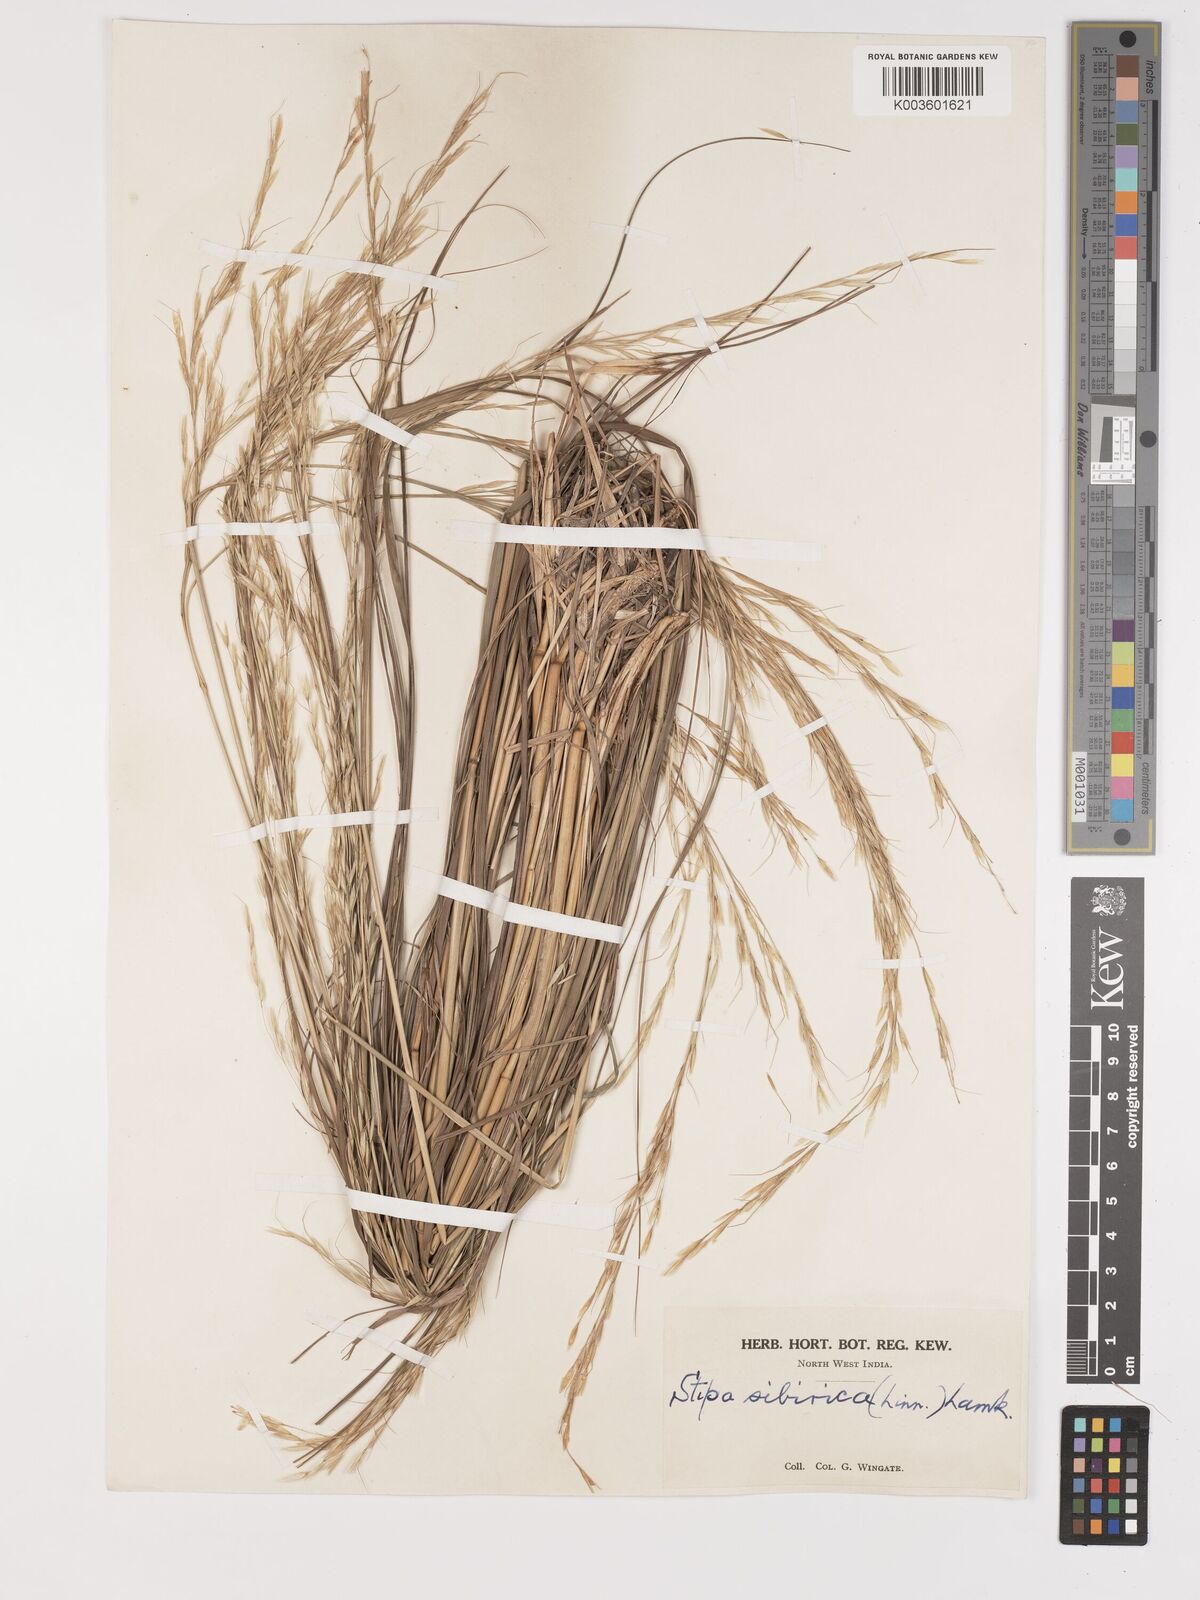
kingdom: Plantae
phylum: Tracheophyta
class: Liliopsida
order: Poales
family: Poaceae
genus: Achnatherum
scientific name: Achnatherum brandisii
